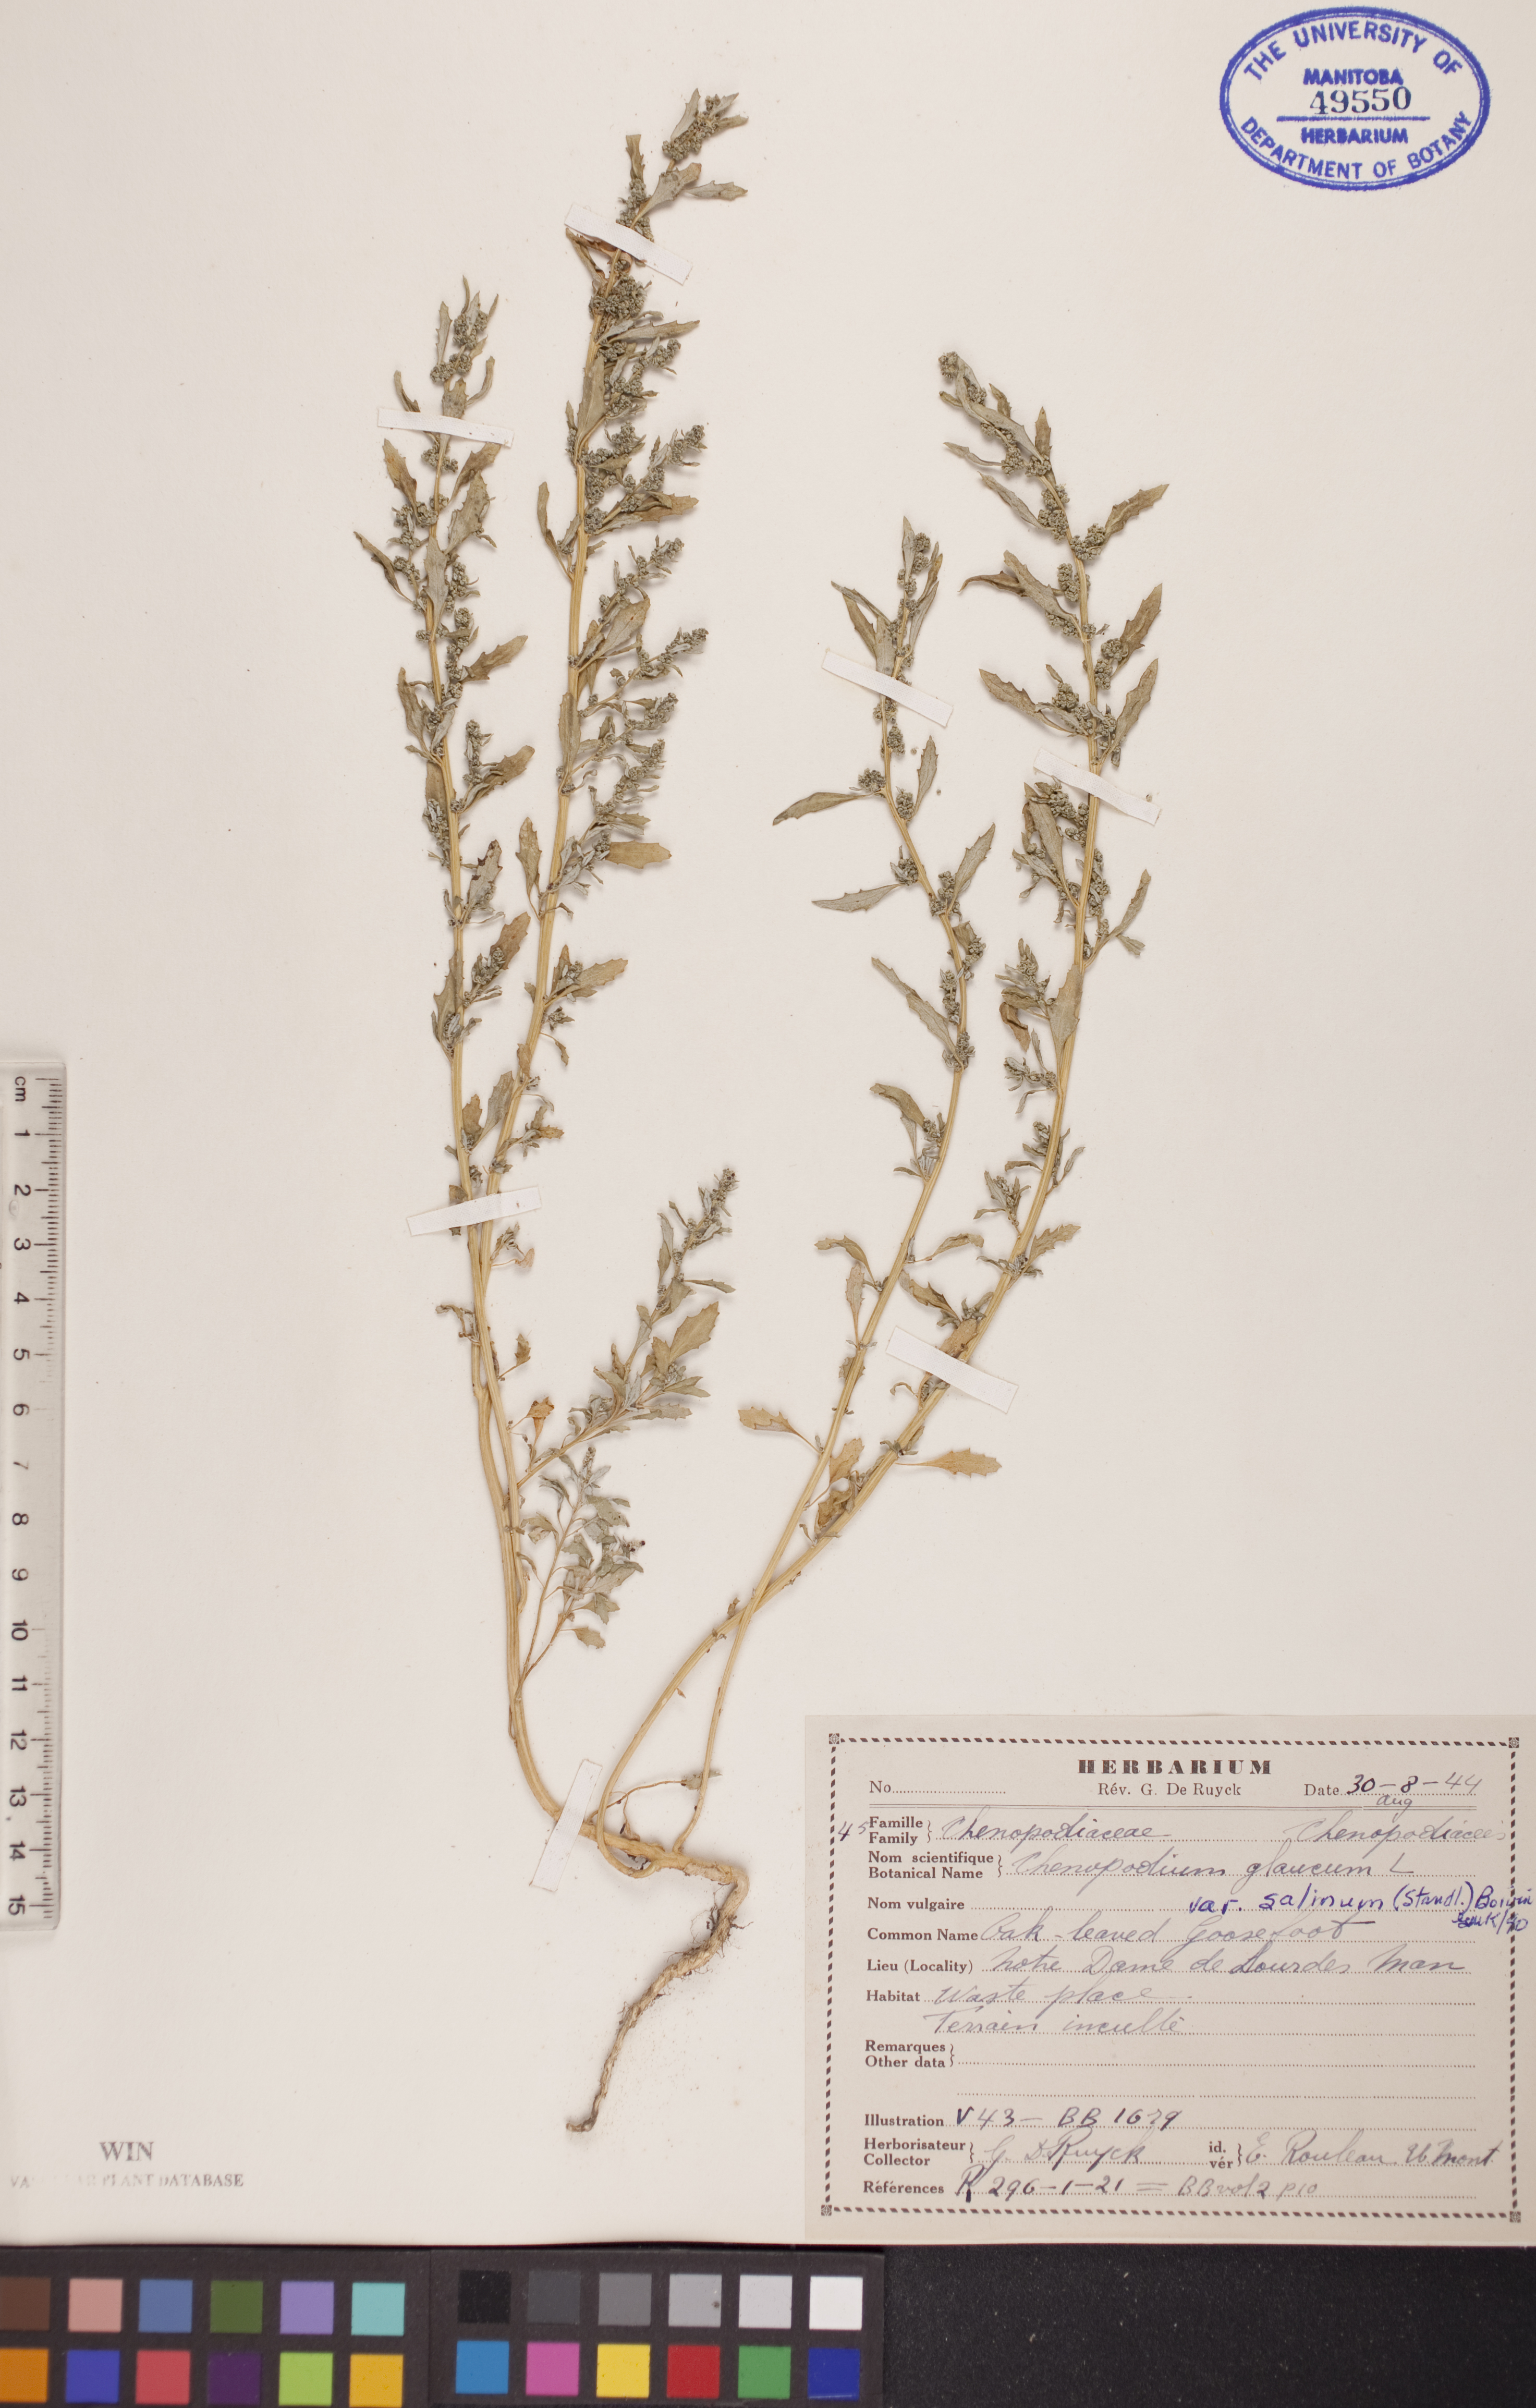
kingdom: Plantae
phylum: Tracheophyta
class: Magnoliopsida
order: Caryophyllales
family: Amaranthaceae
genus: Oxybasis
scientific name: Oxybasis salina
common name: Rocky mountain goosefoot
